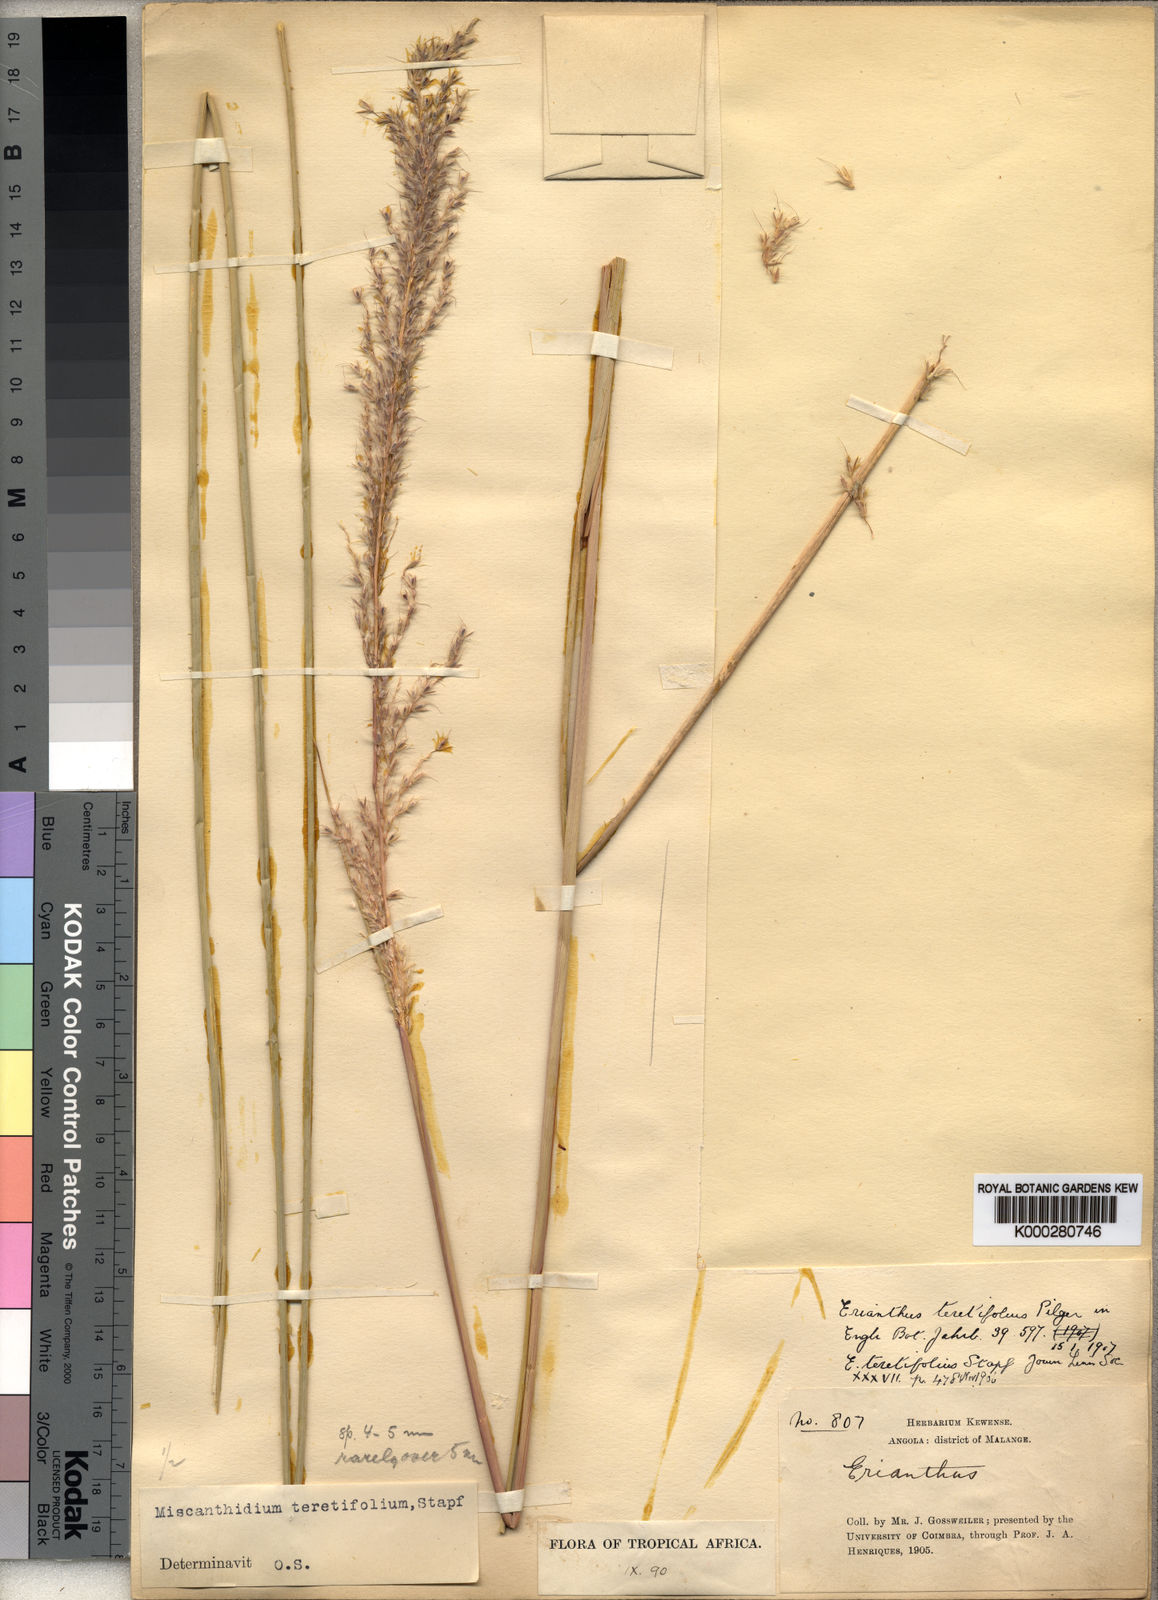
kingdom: Plantae
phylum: Tracheophyta
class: Liliopsida
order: Poales
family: Poaceae
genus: Miscanthidium
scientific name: Miscanthidium junceum
